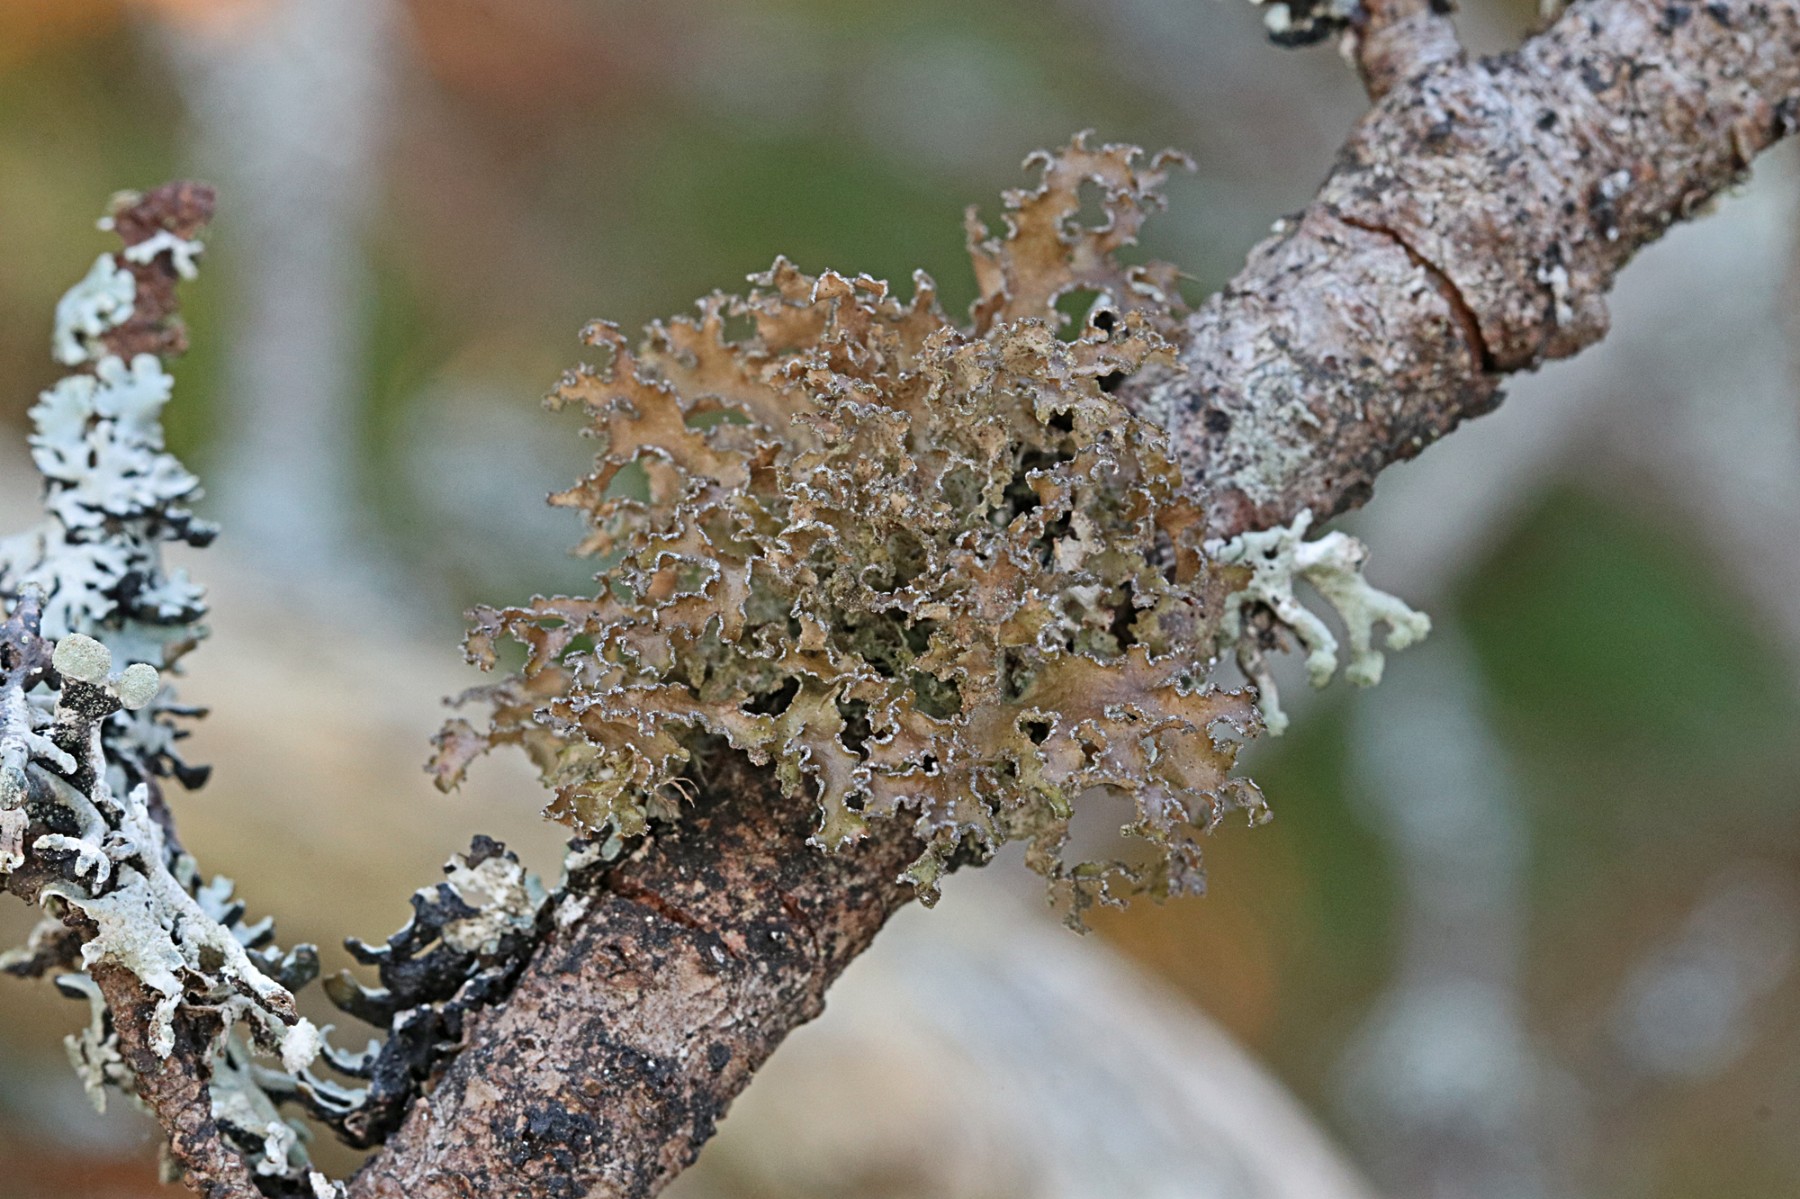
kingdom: Fungi
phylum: Ascomycota
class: Lecanoromycetes
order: Lecanorales
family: Parmeliaceae
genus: Nephromopsis
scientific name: Nephromopsis chlorophylla
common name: olivenbrun kruslav
